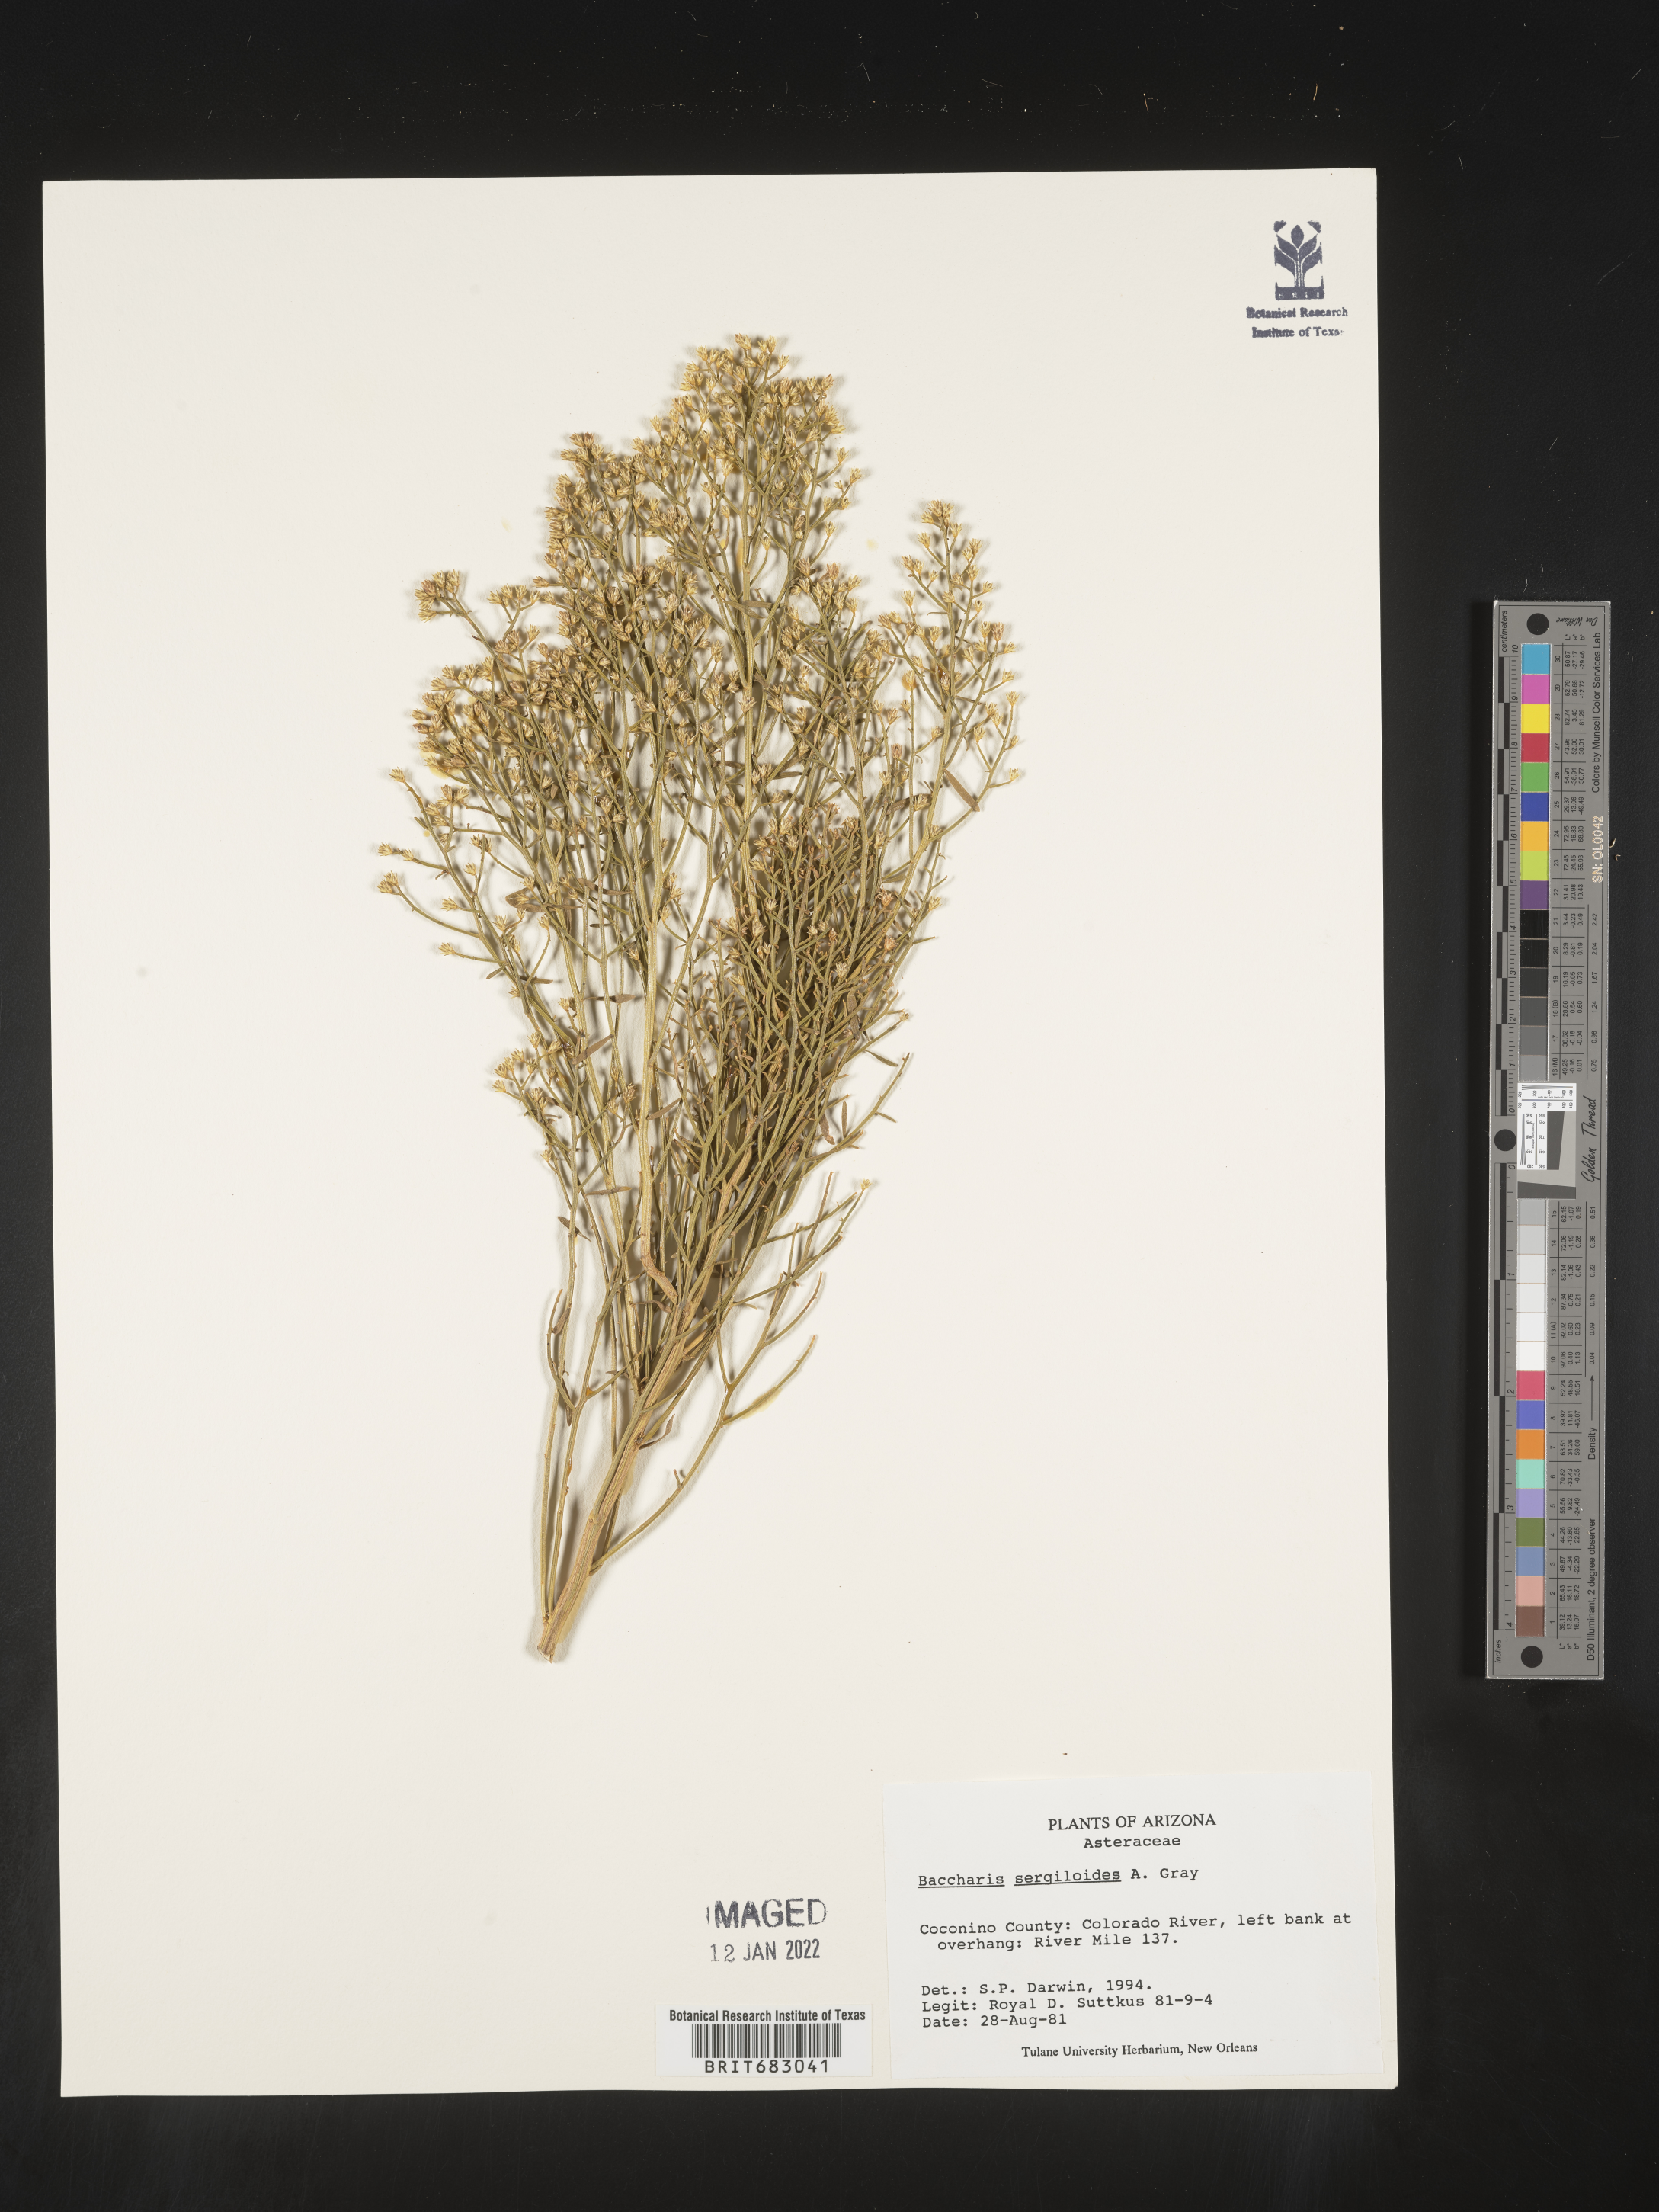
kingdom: Plantae
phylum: Tracheophyta
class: Magnoliopsida
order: Asterales
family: Asteraceae
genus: Baccharis
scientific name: Baccharis sergiloides
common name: Desert baccharis
